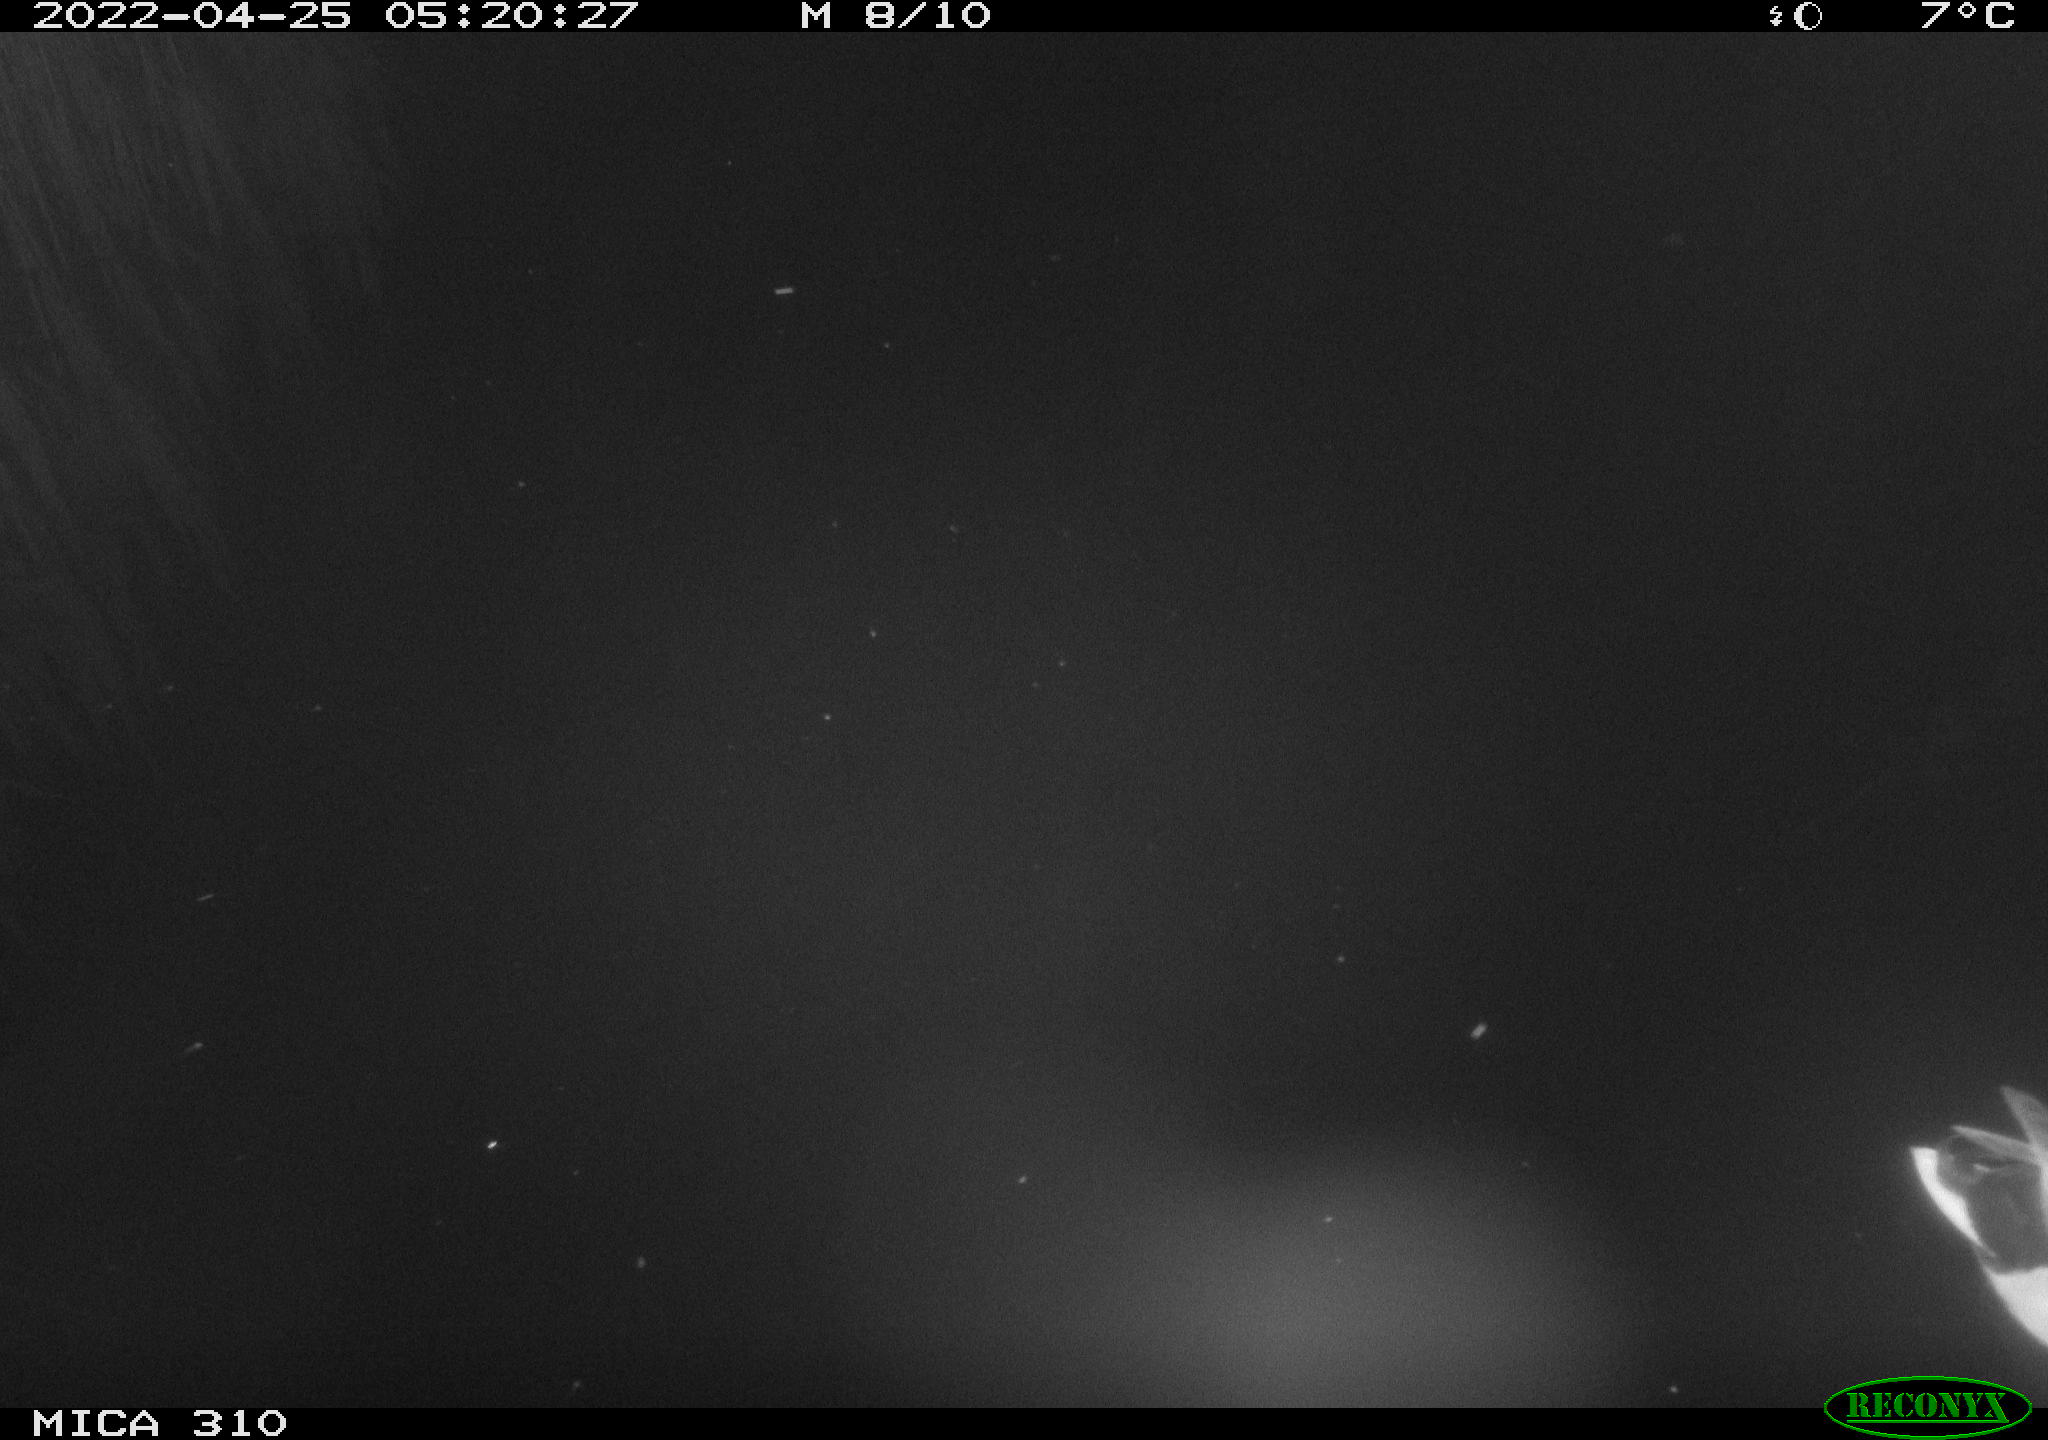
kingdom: Animalia
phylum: Chordata
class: Aves
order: Gruiformes
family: Rallidae
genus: Fulica
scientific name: Fulica atra
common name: Eurasian coot
